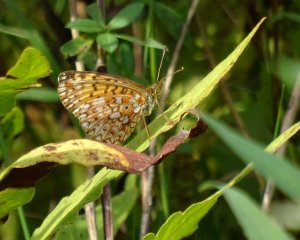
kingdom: Animalia
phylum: Arthropoda
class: Insecta
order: Lepidoptera
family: Nymphalidae
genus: Boloria
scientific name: Boloria selene
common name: Silver-bordered Fritillary
